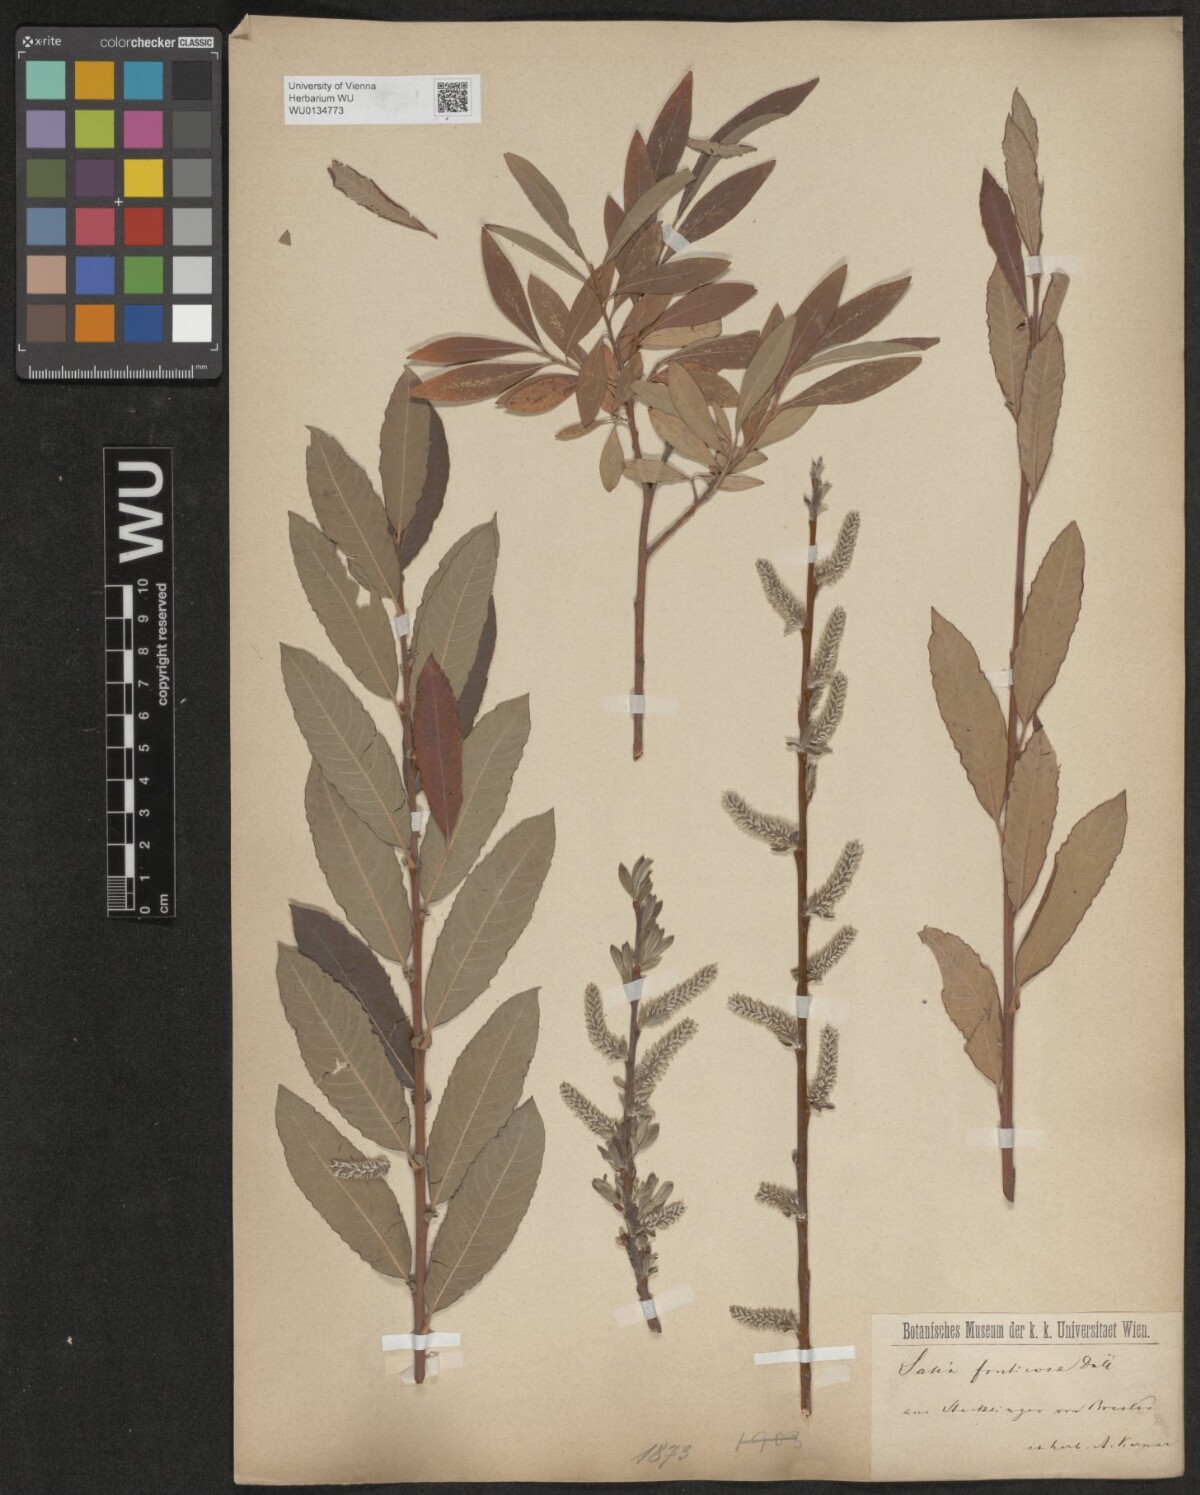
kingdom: Plantae
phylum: Tracheophyta
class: Magnoliopsida
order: Malpighiales
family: Salicaceae
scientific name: Salicaceae
